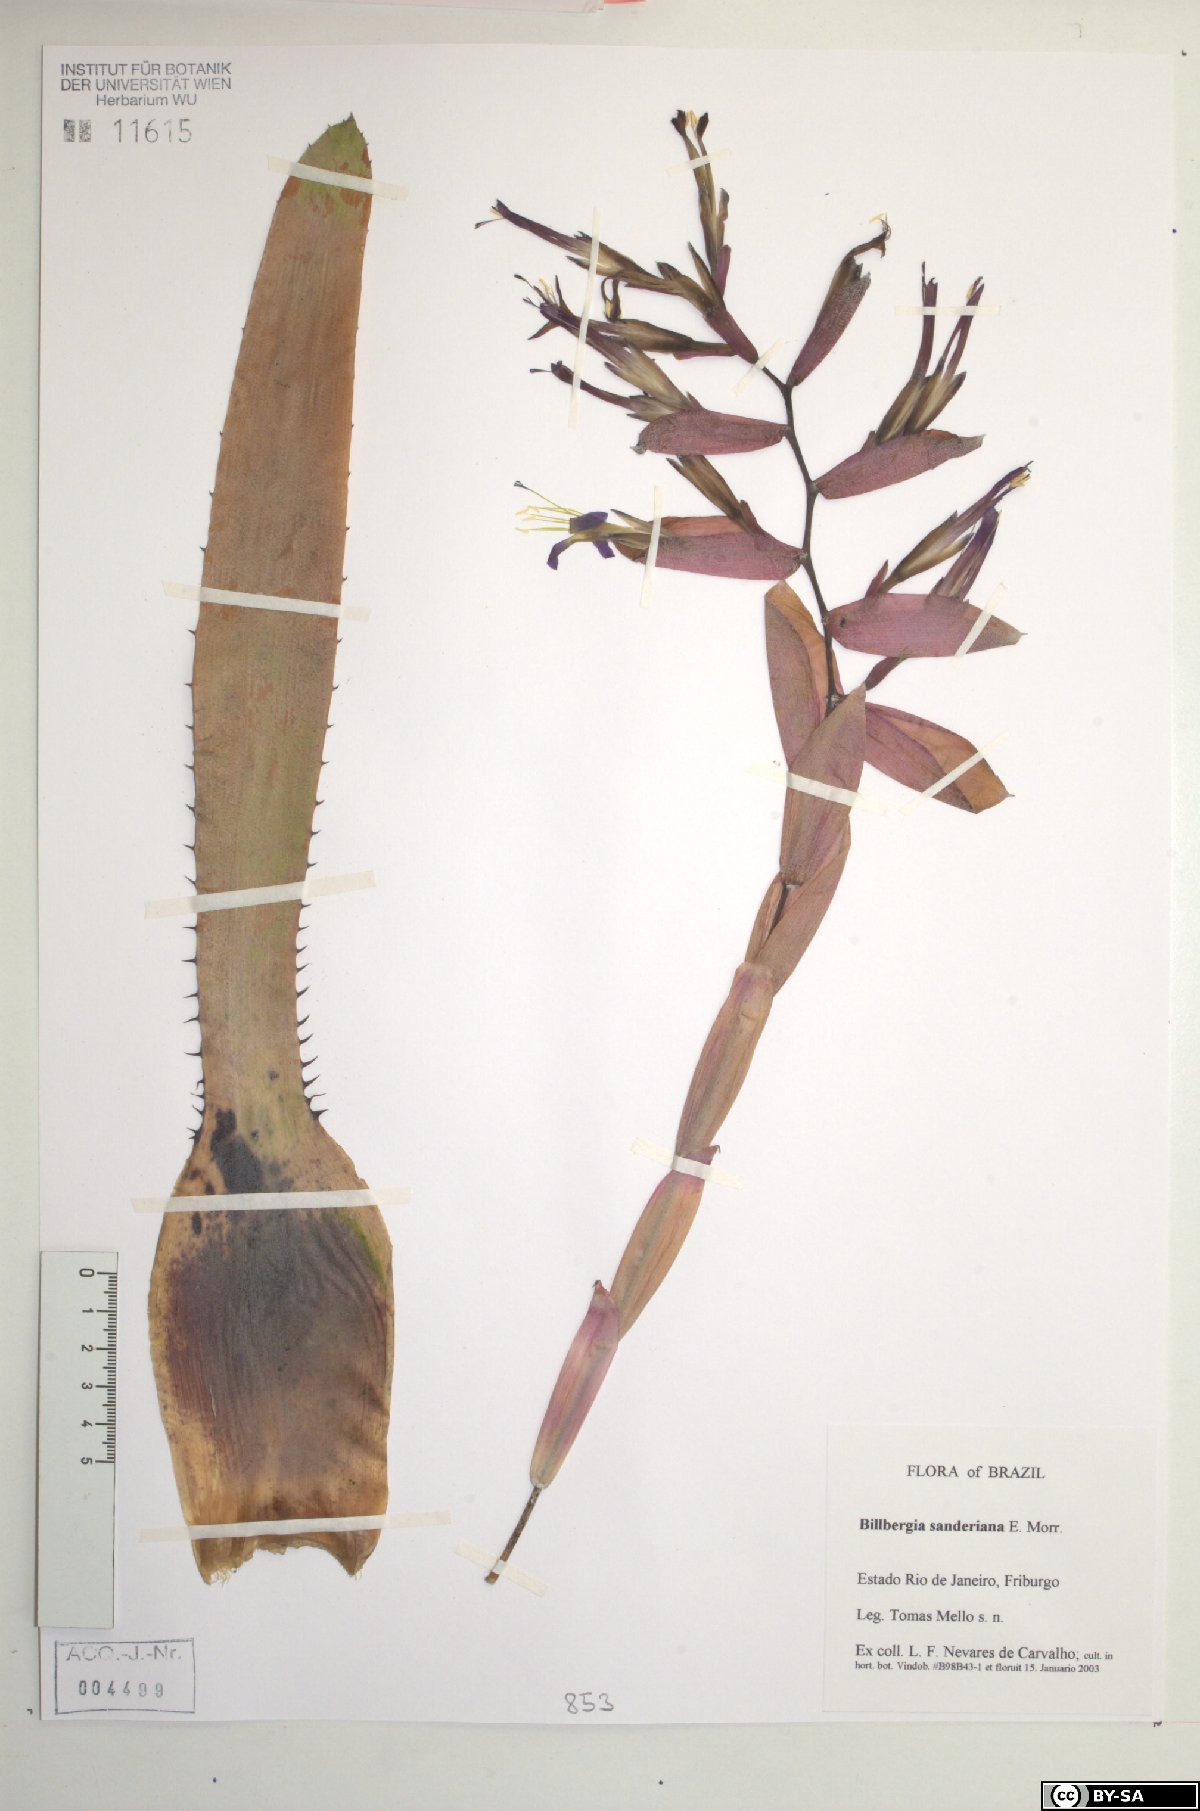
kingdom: Plantae
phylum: Tracheophyta
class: Liliopsida
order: Poales
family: Bromeliaceae
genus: Billbergia
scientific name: Billbergia sanderiana
